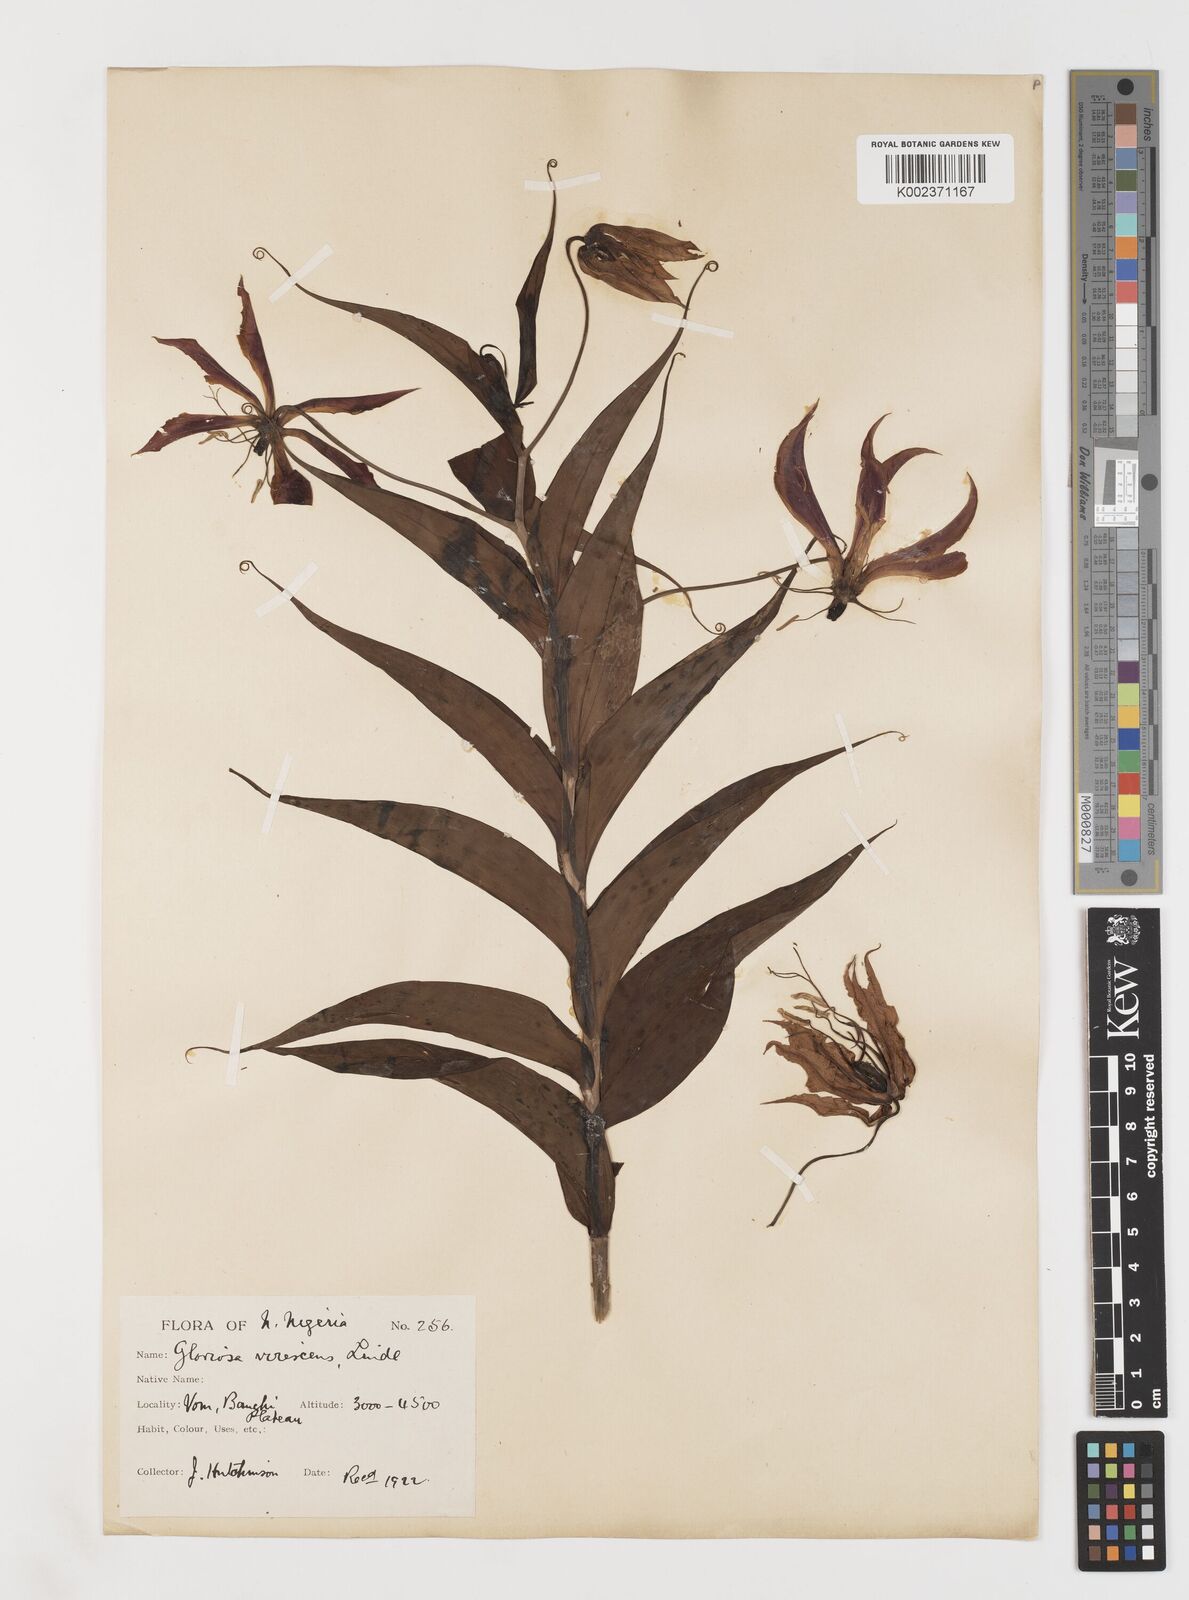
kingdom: Plantae
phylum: Tracheophyta
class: Liliopsida
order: Liliales
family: Colchicaceae
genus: Gloriosa
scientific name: Gloriosa simplex
